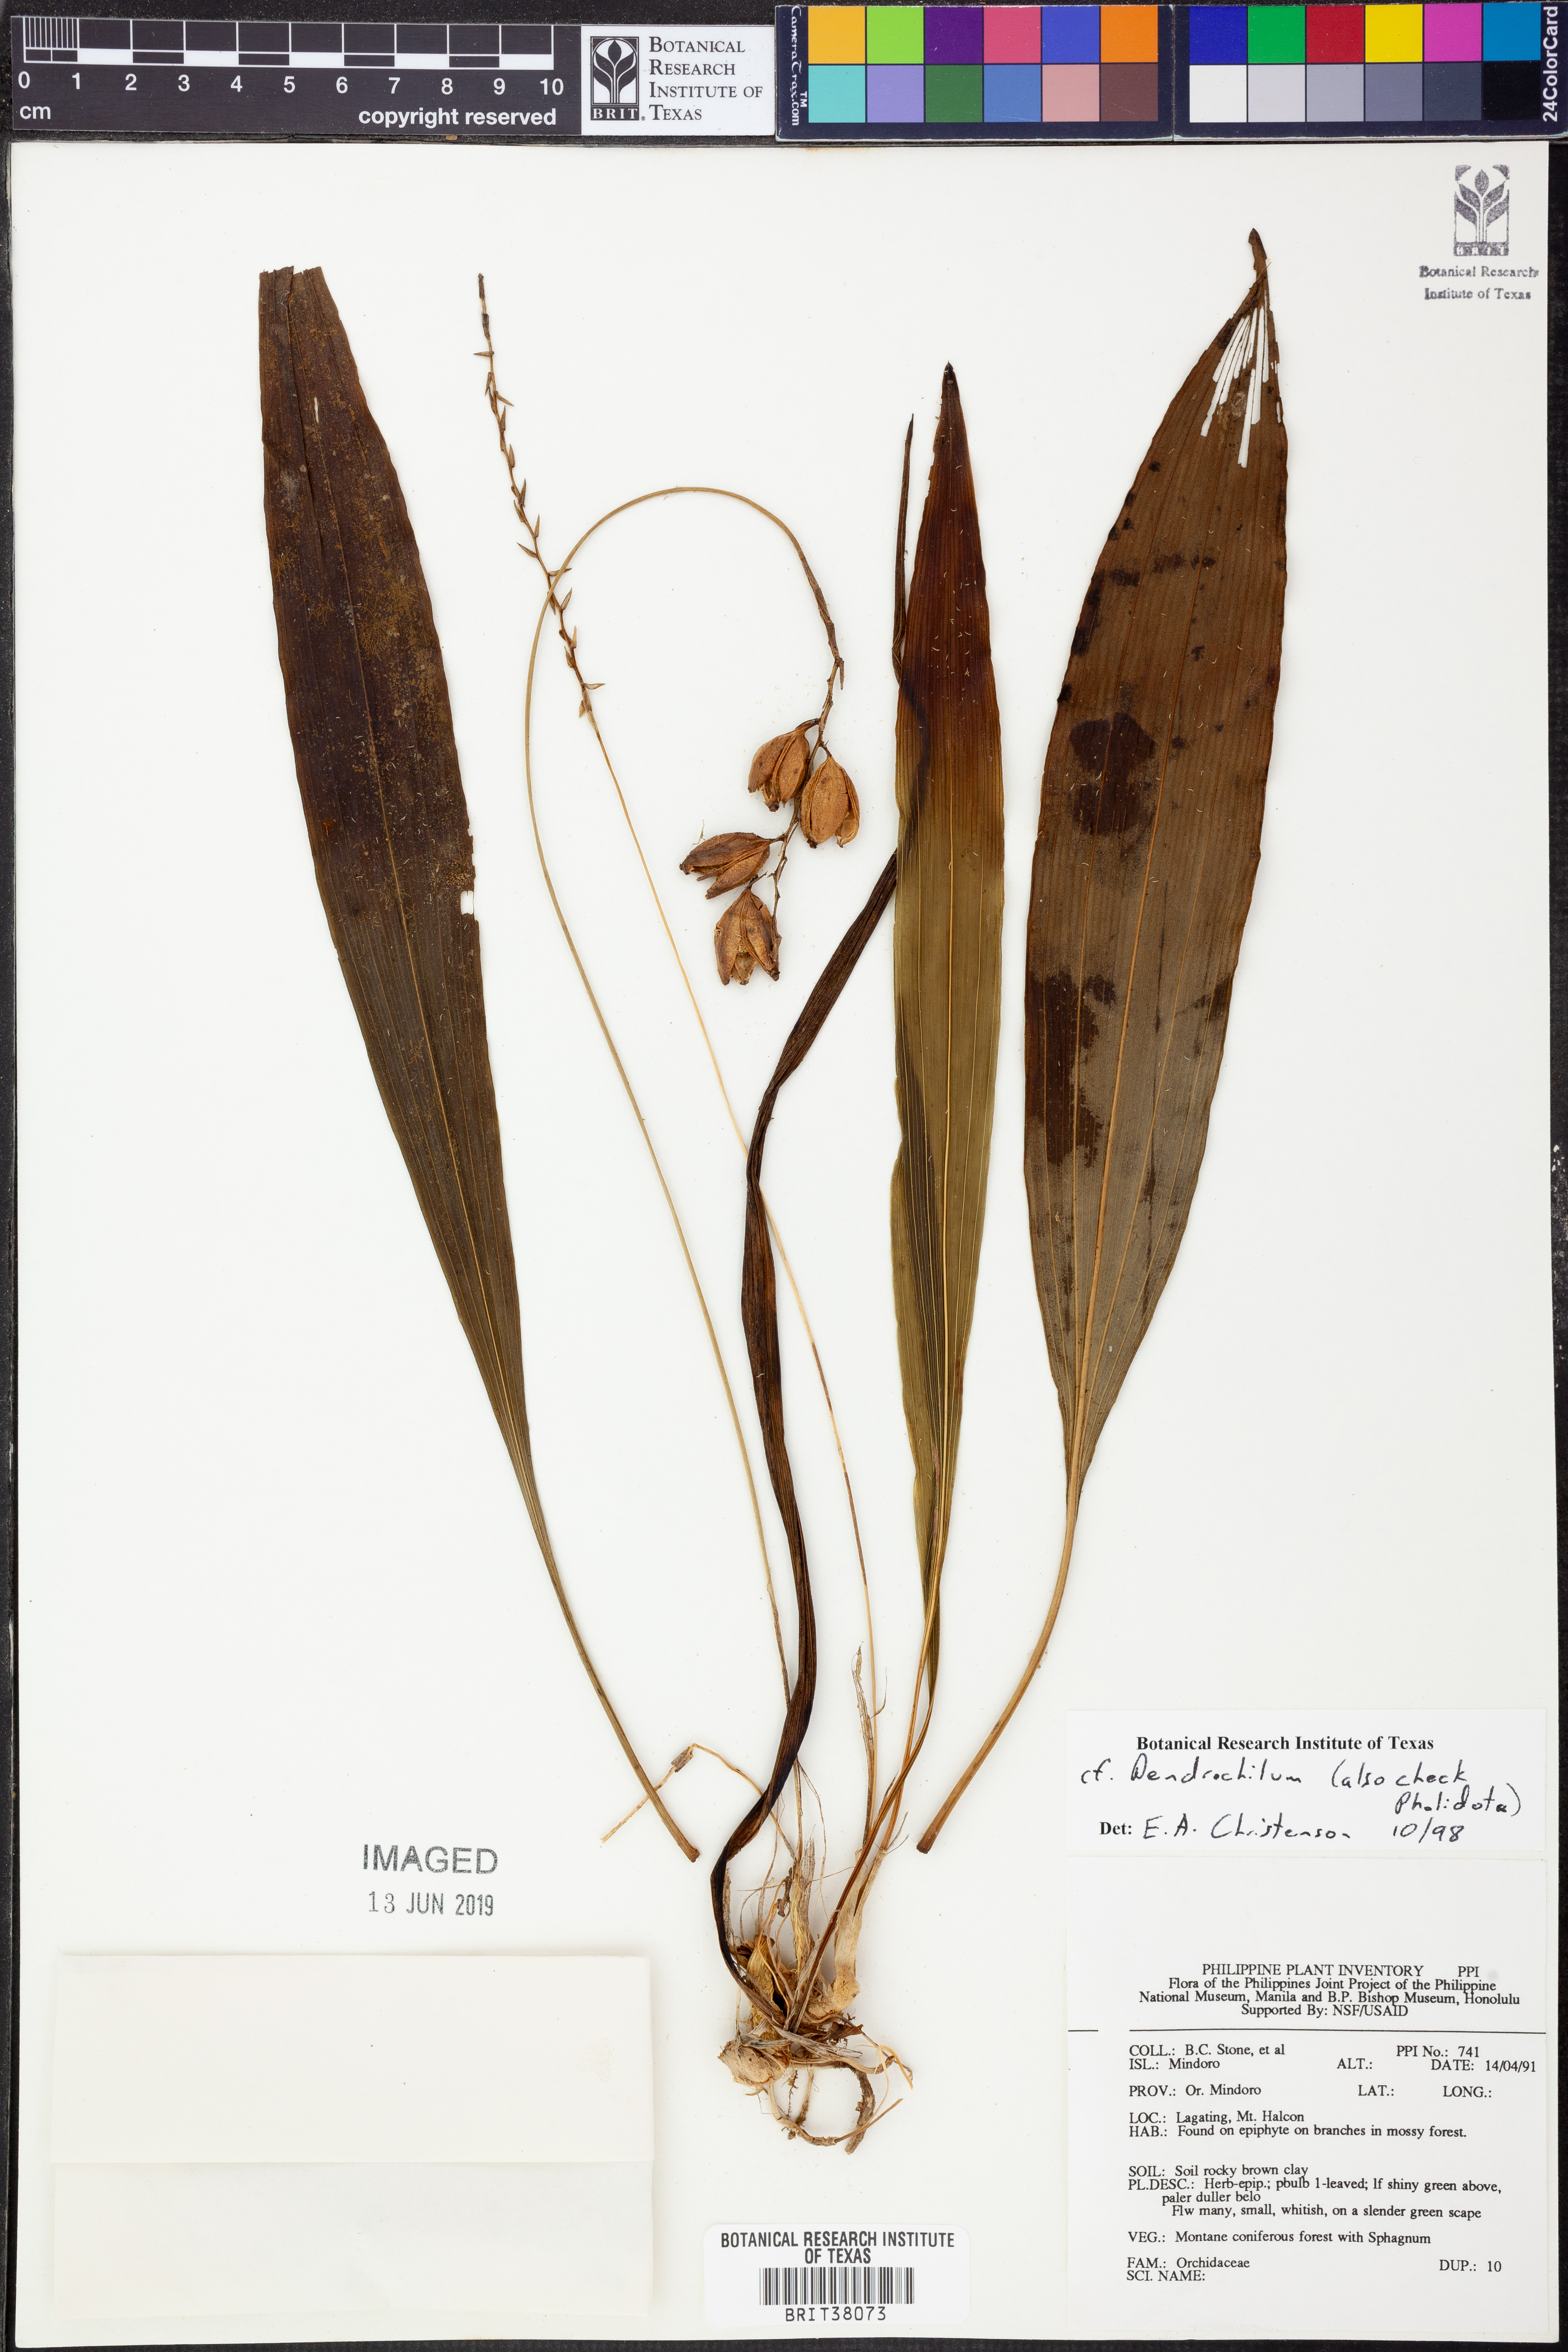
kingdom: Plantae
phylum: Tracheophyta
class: Liliopsida
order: Asparagales
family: Orchidaceae
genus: Coelogyne
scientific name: Coelogyne
